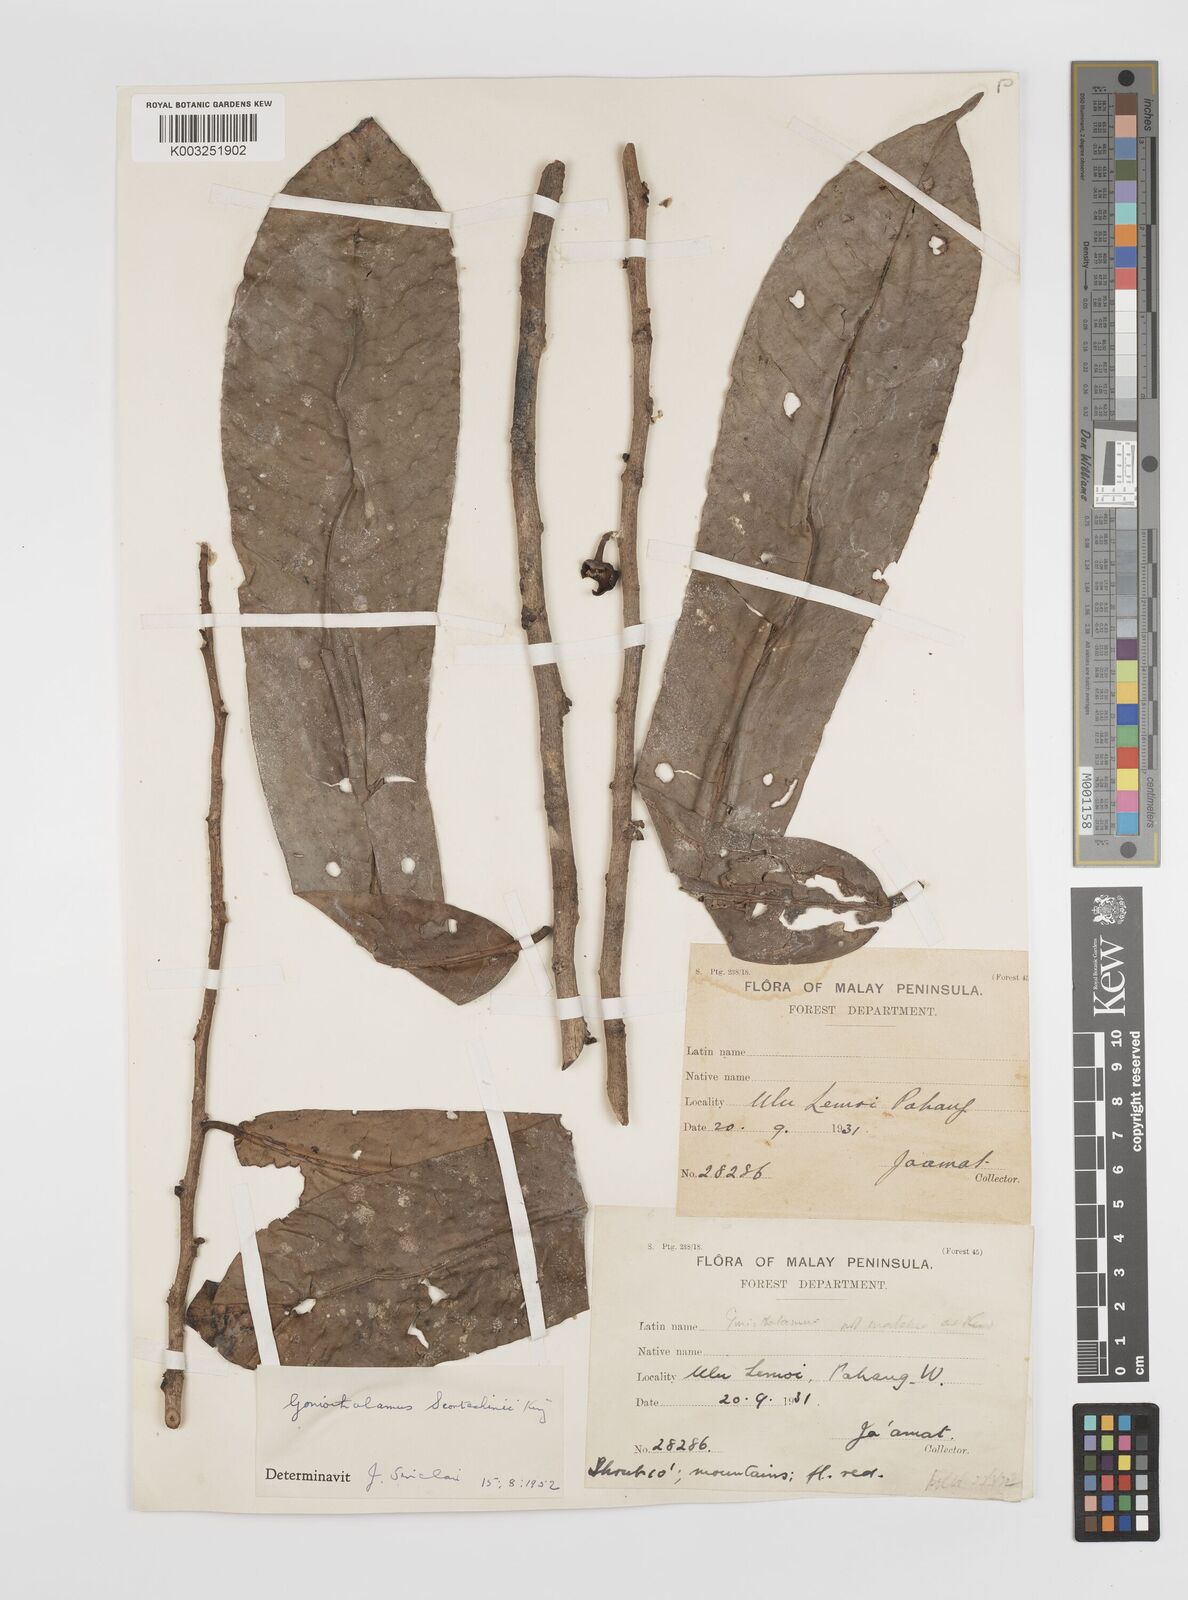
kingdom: Plantae
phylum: Tracheophyta
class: Magnoliopsida
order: Magnoliales
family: Annonaceae
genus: Goniothalamus
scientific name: Goniothalamus scortechinii
